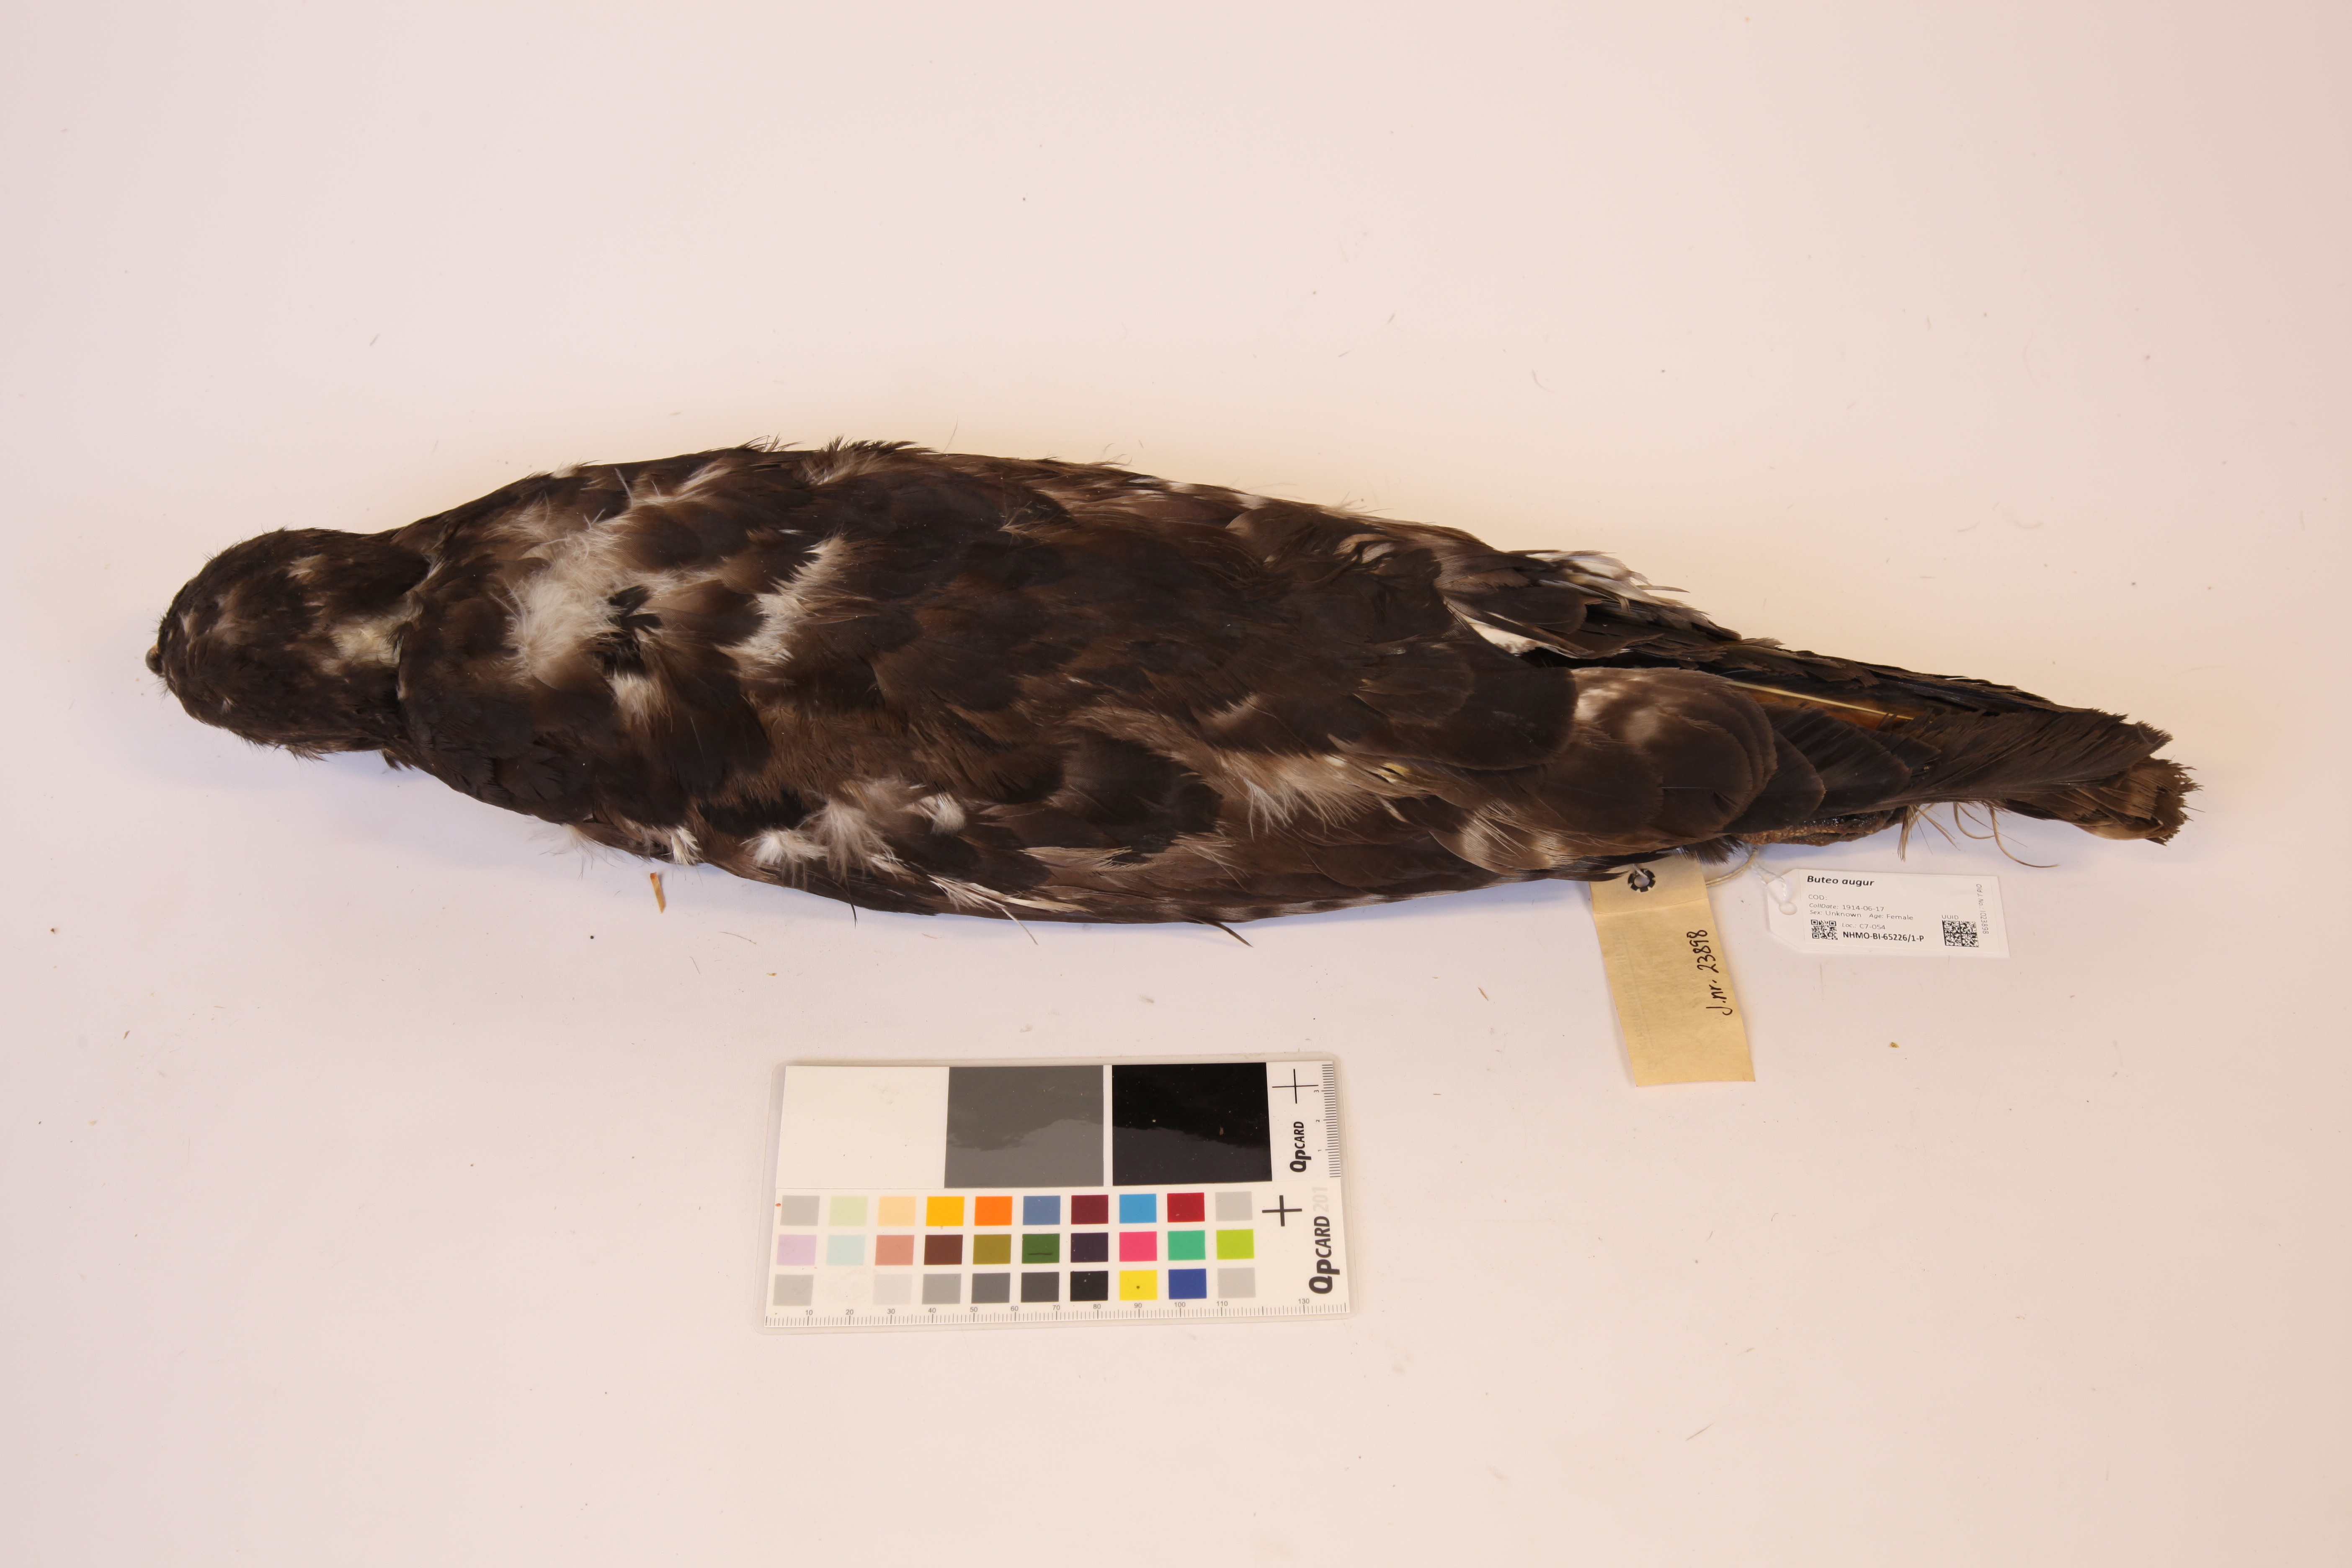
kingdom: Animalia
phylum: Chordata
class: Aves
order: Accipitriformes
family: Accipitridae
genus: Buteo
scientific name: Buteo augur
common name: Augur buzzard
